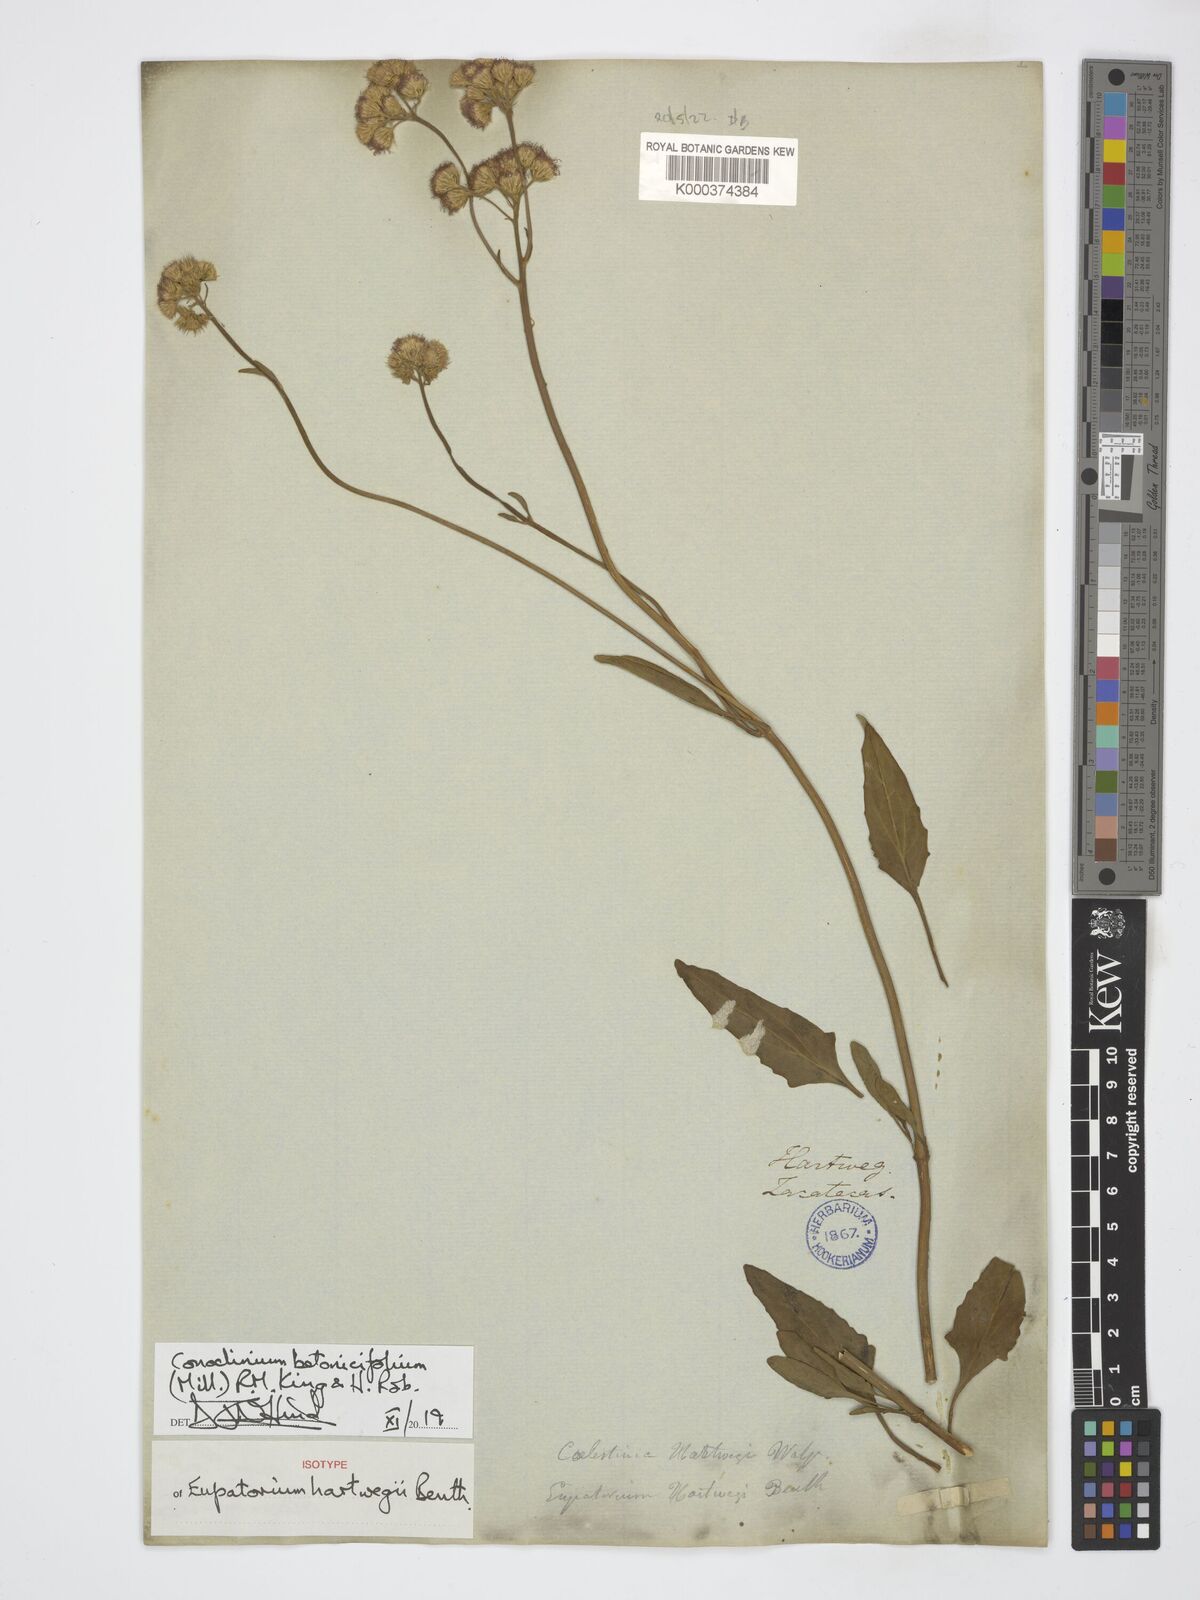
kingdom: Plantae
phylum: Tracheophyta
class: Magnoliopsida
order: Asterales
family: Asteraceae
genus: Conoclinium
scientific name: Conoclinium betonicifolium
